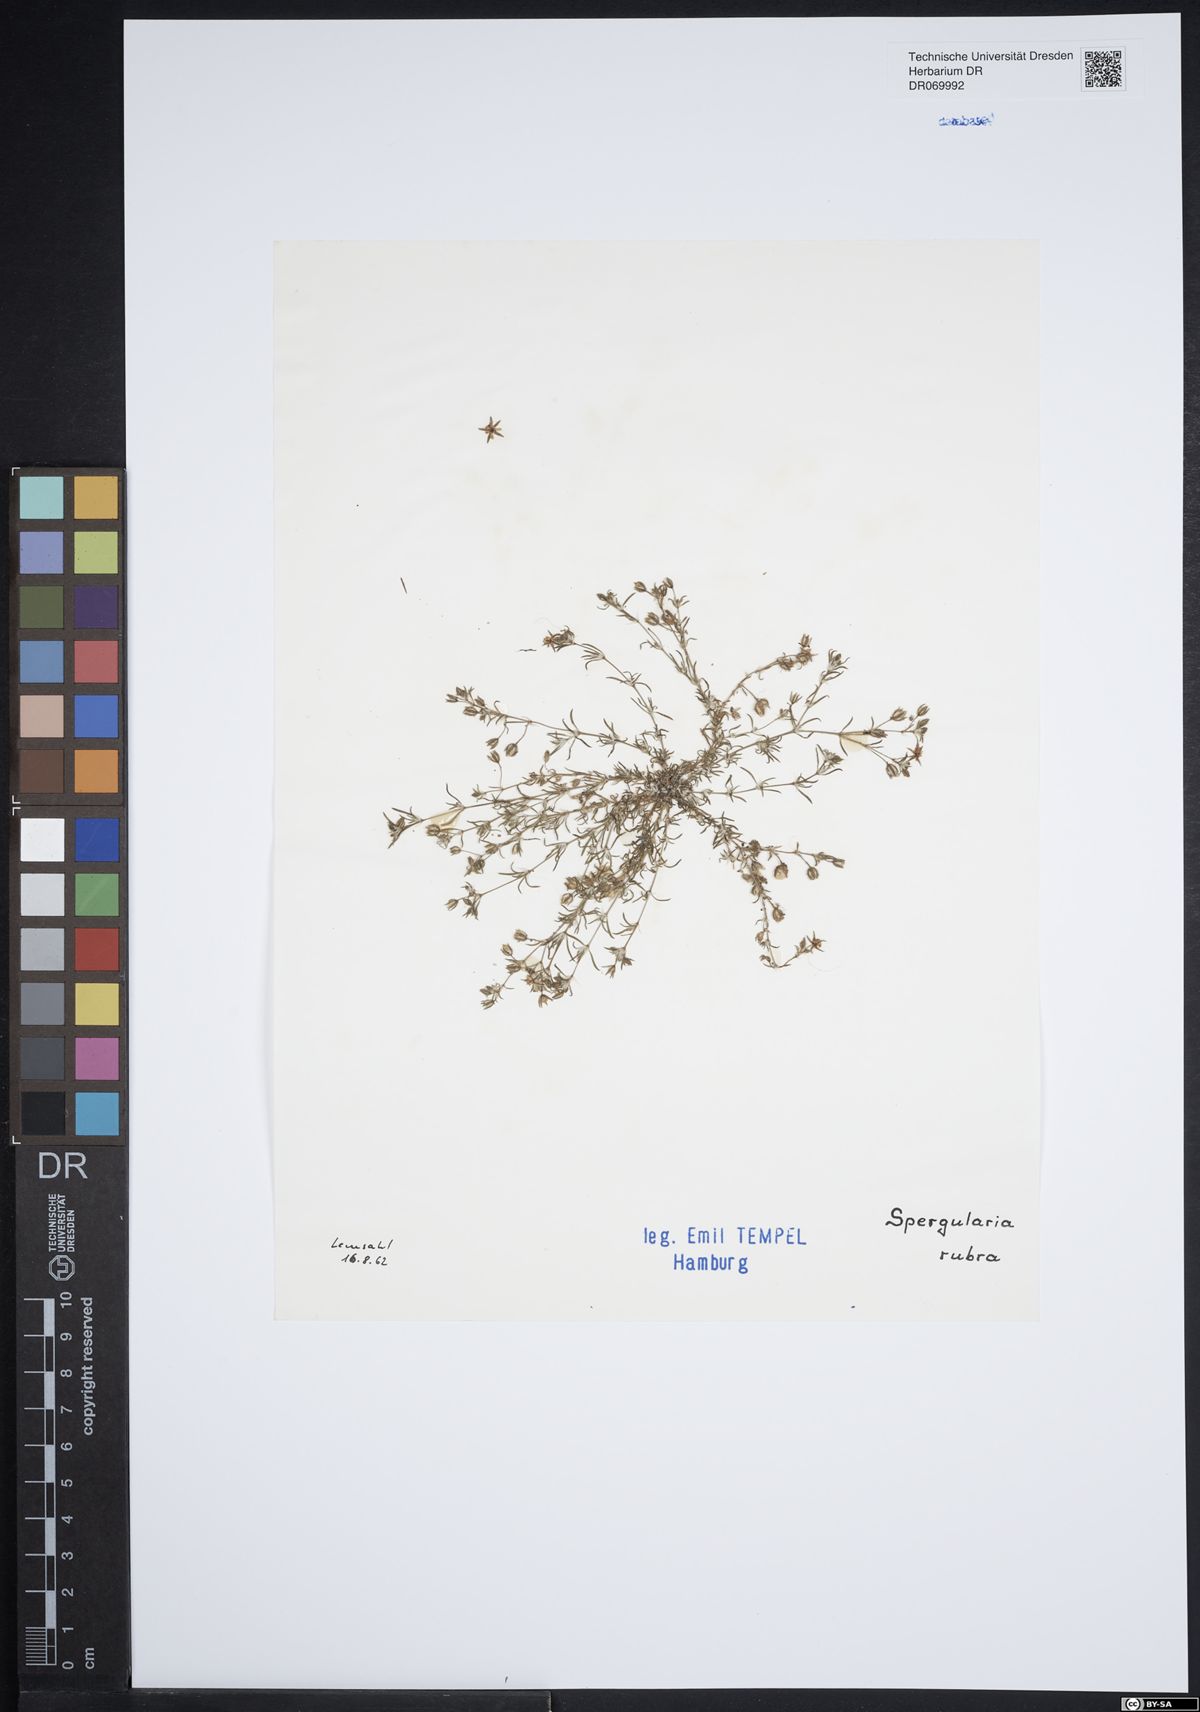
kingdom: Plantae
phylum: Tracheophyta
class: Magnoliopsida
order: Caryophyllales
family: Caryophyllaceae
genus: Spergularia
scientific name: Spergularia rubra
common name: Red sand-spurrey
